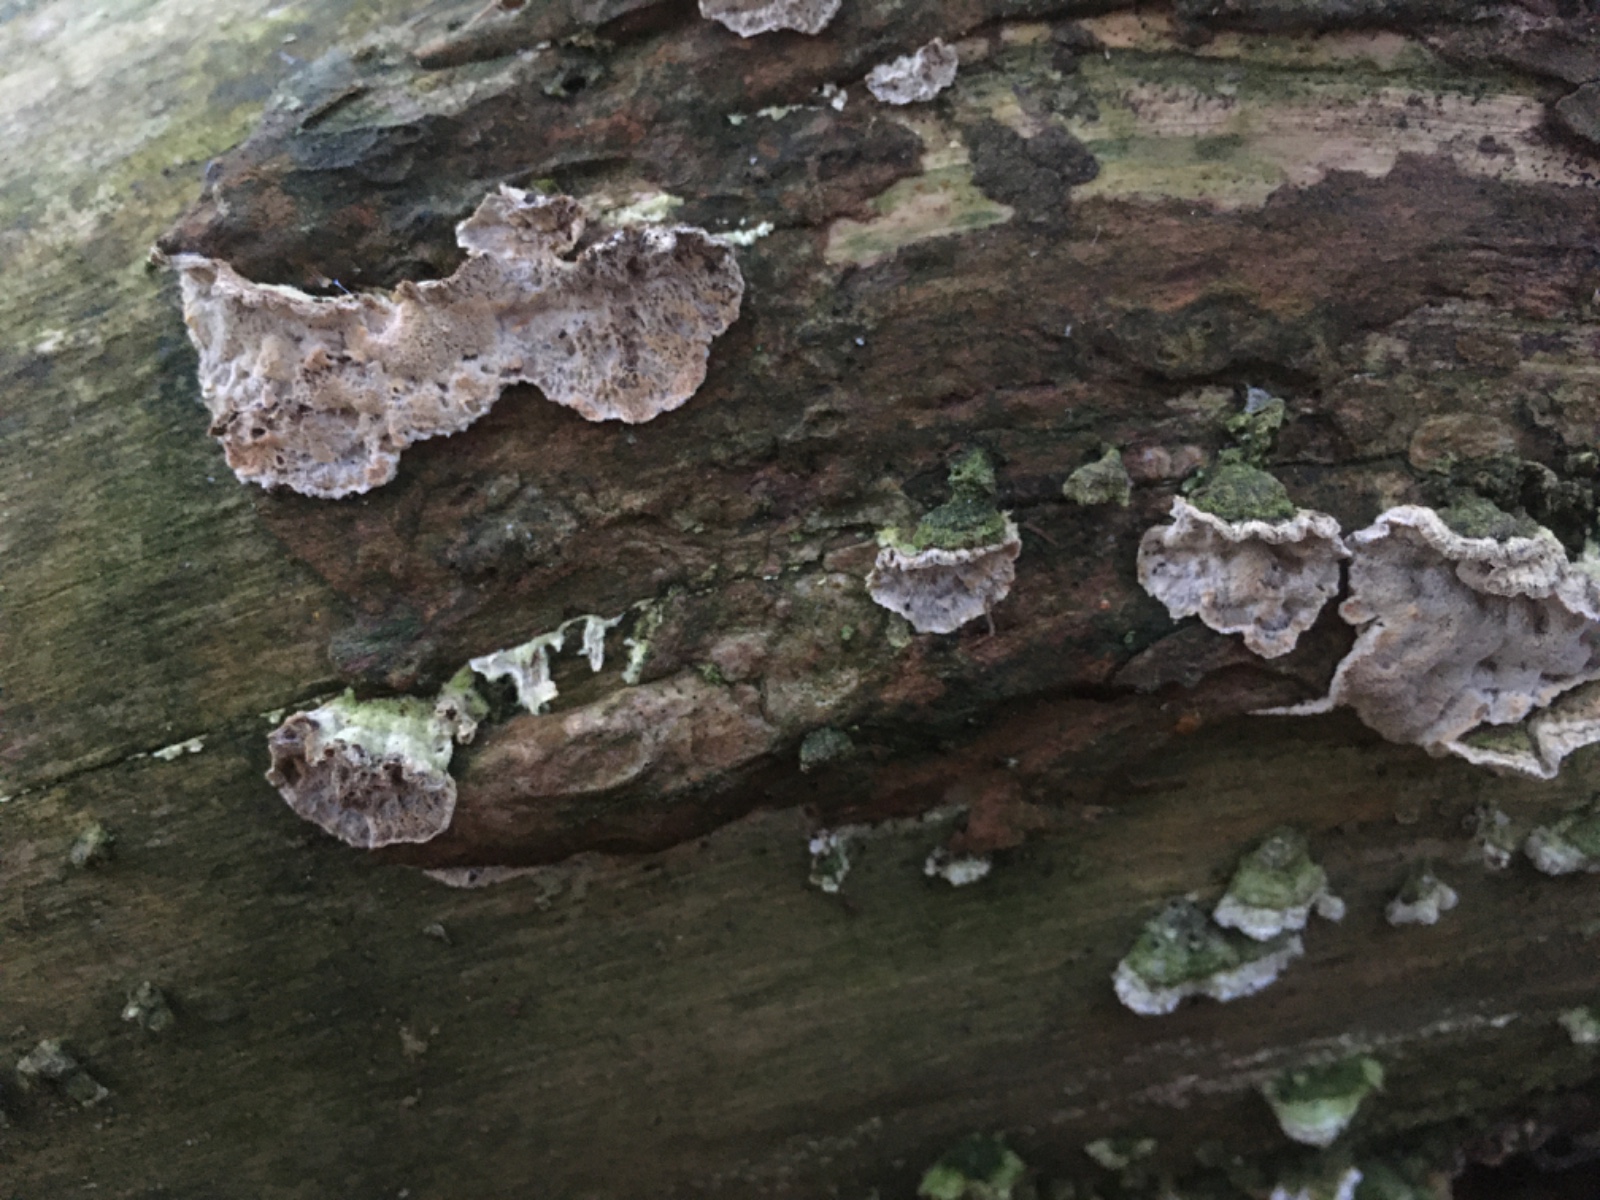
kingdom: Fungi
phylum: Basidiomycota
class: Agaricomycetes
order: Polyporales
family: Incrustoporiaceae
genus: Skeletocutis
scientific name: Skeletocutis carneogrisea
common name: rødgrå krystalporesvamp
